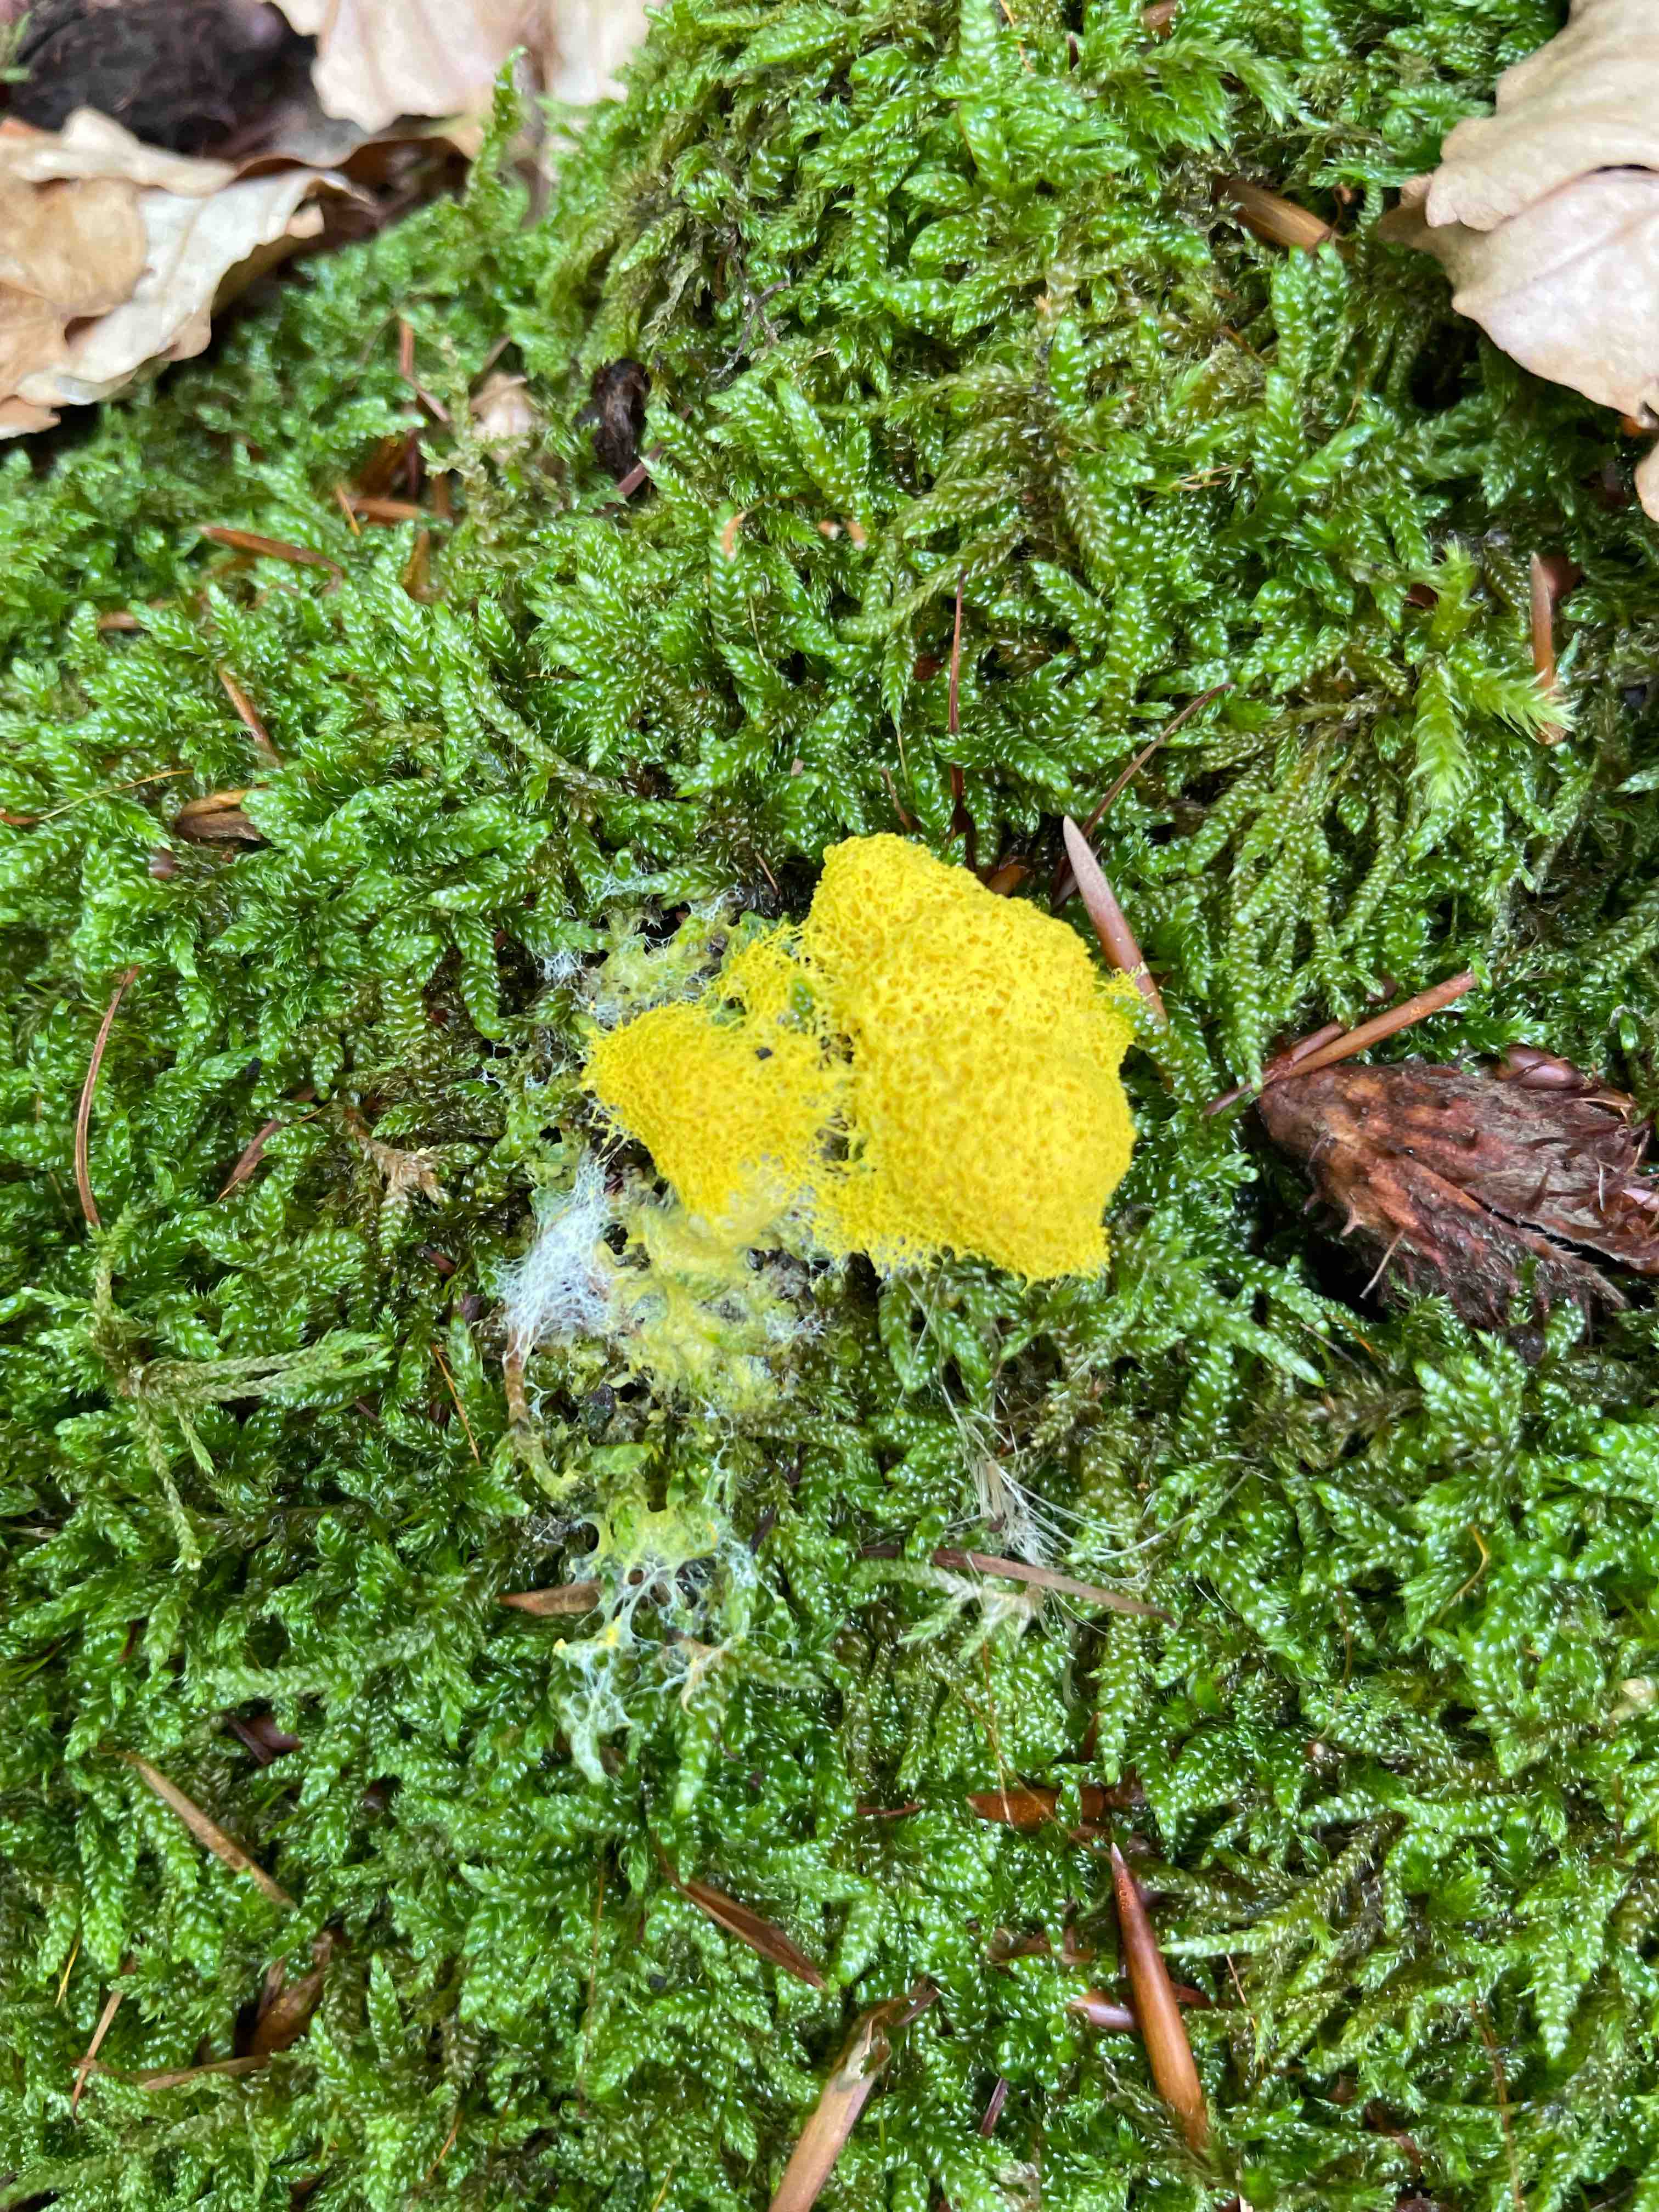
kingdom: Protozoa
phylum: Mycetozoa
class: Myxomycetes
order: Physarales
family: Physaraceae
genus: Fuligo
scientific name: Fuligo septica
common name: gul troldsmør
